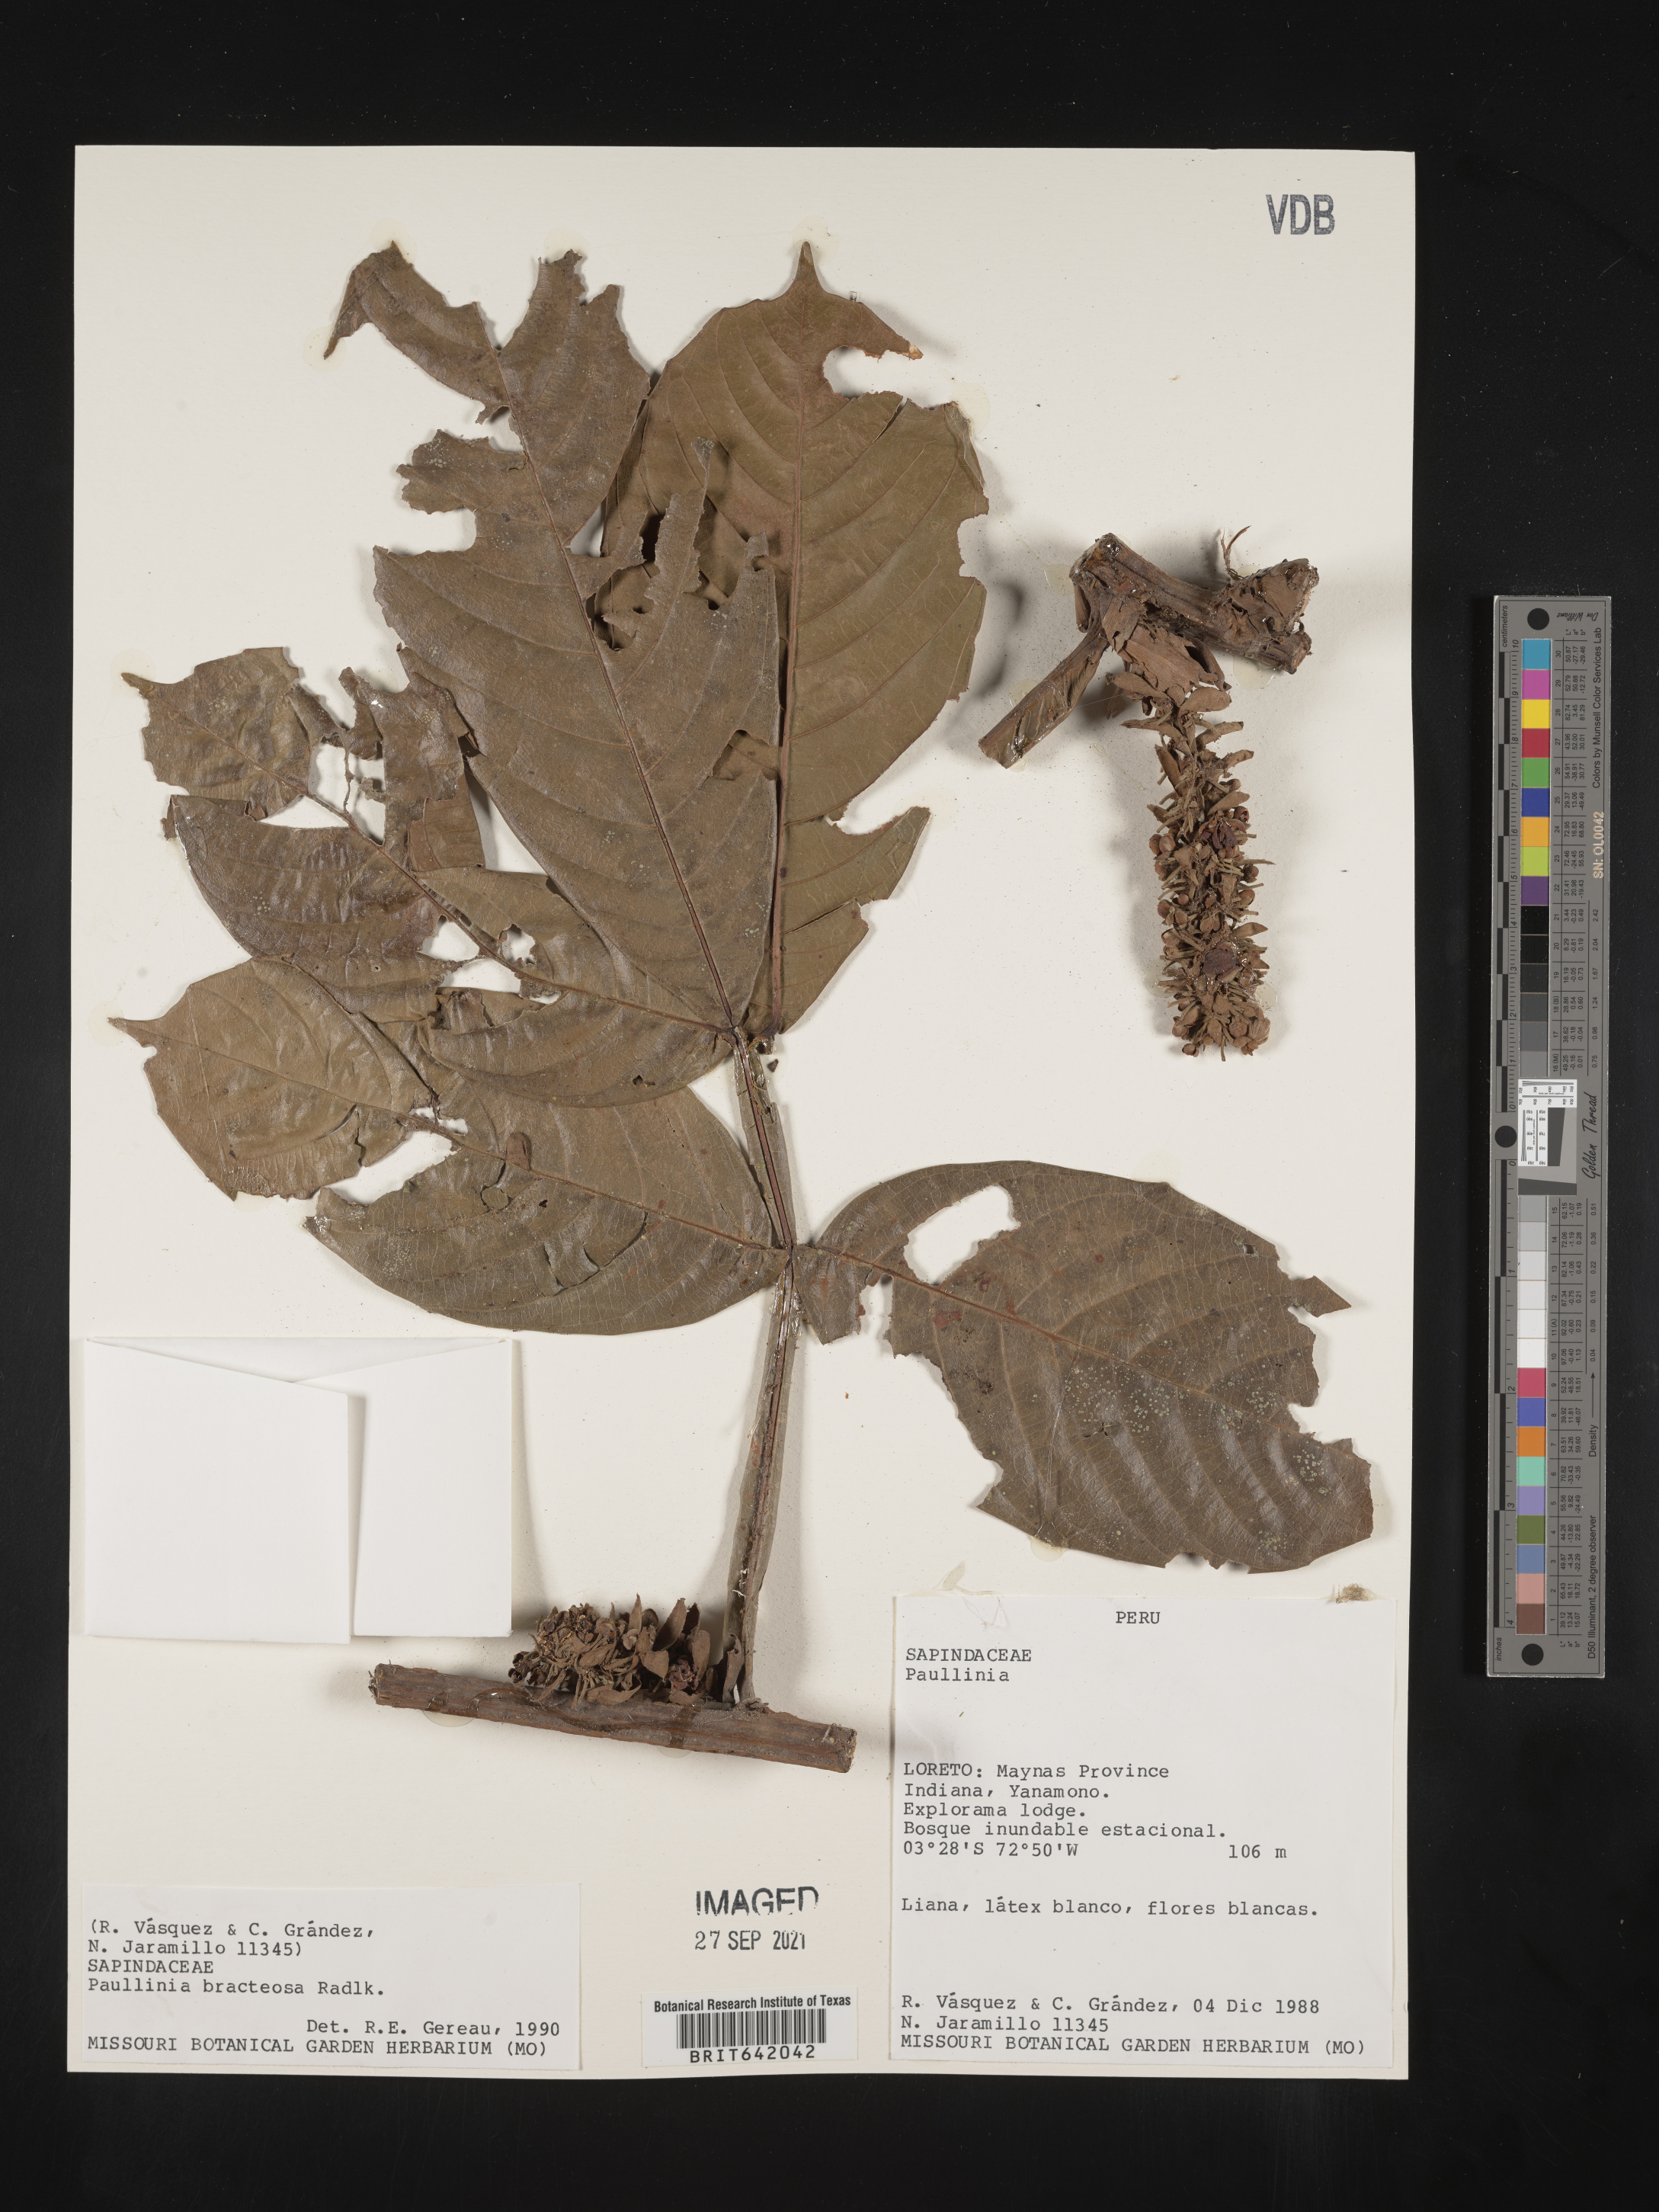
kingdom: Plantae
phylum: Tracheophyta
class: Magnoliopsida
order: Sapindales
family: Sapindaceae
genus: Paullinia
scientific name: Paullinia
